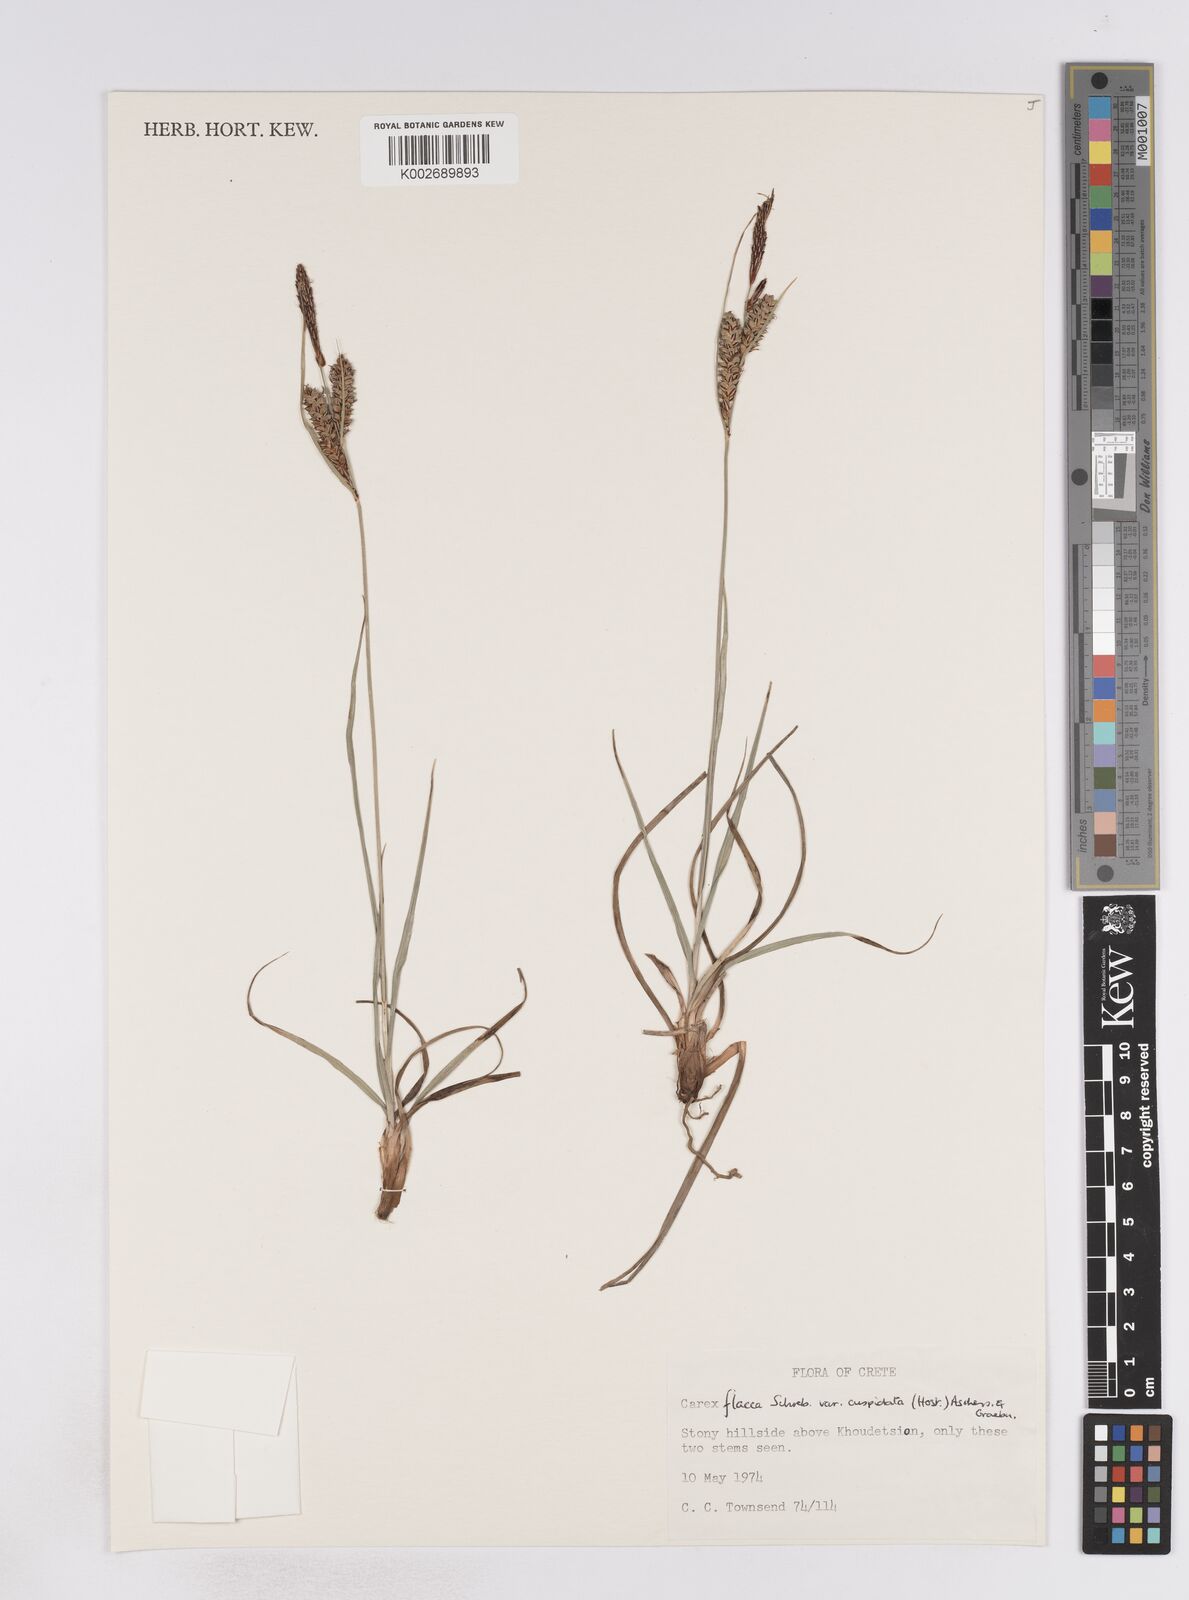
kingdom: Plantae
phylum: Tracheophyta
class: Liliopsida
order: Poales
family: Cyperaceae
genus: Carex
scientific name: Carex flacca
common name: Glaucous sedge
